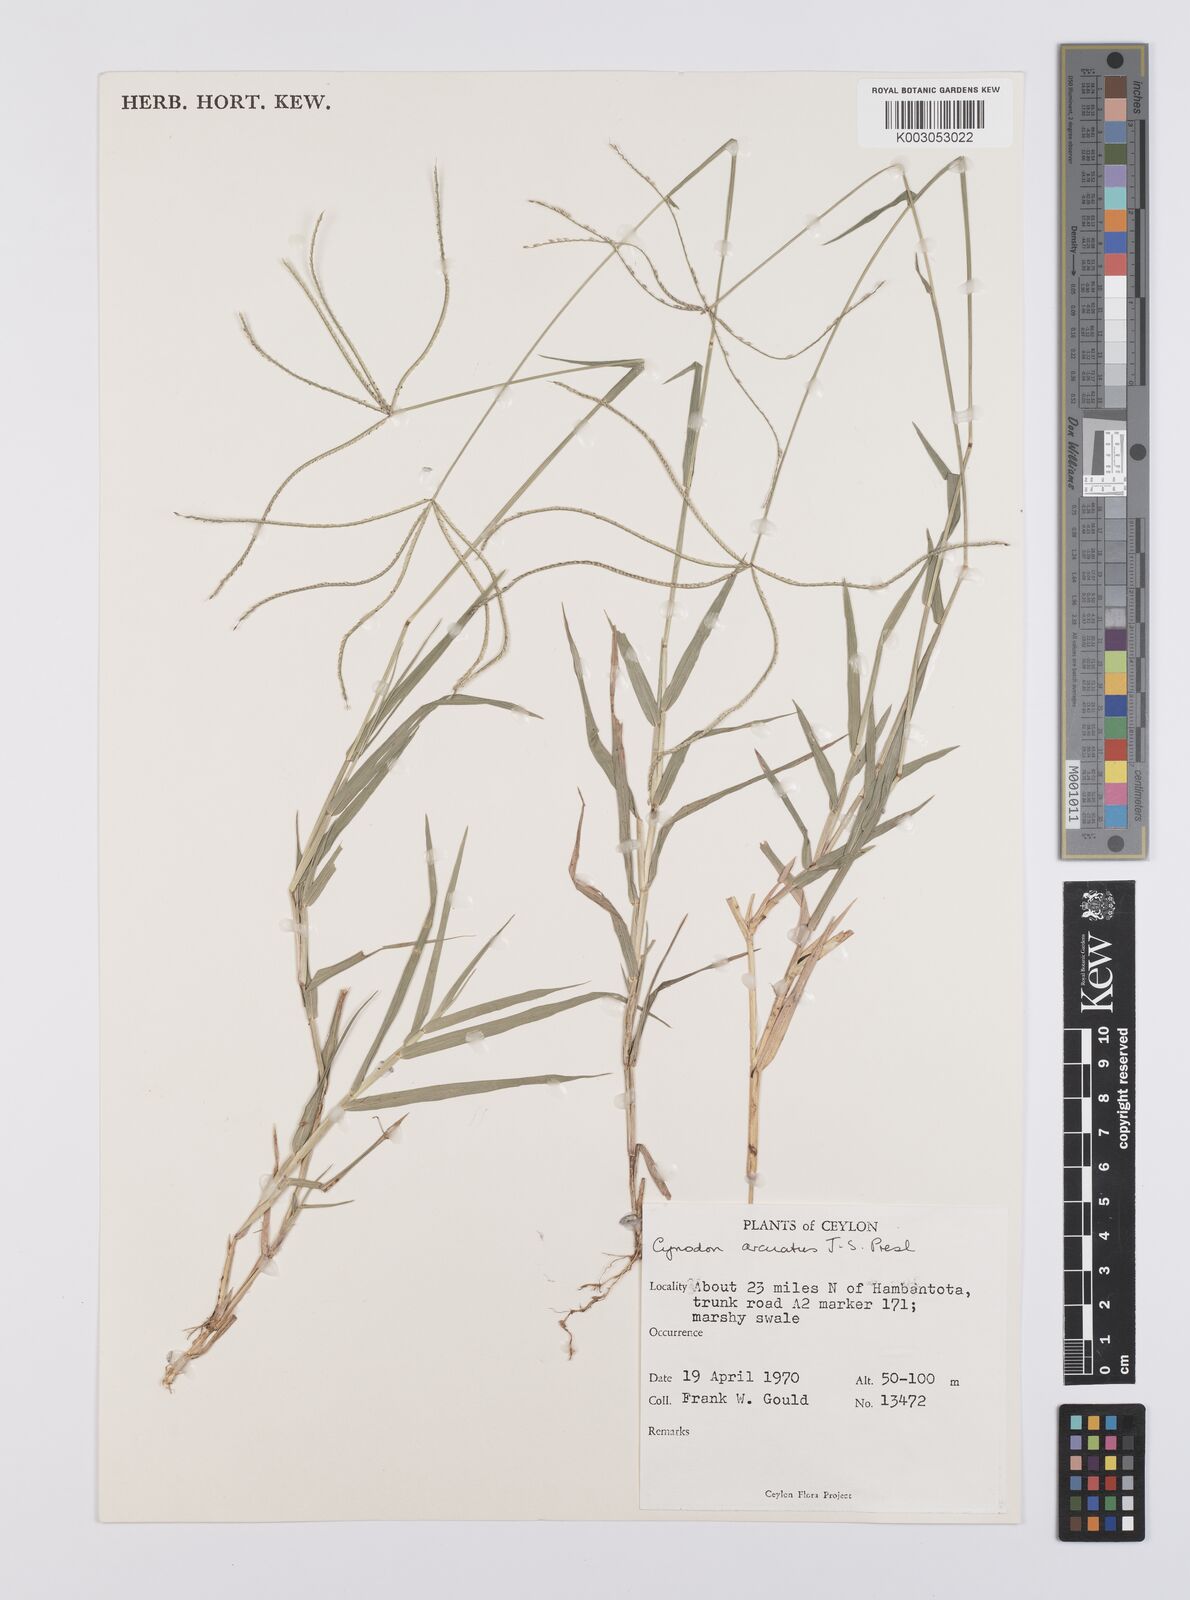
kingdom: Plantae
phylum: Tracheophyta
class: Liliopsida
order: Poales
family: Poaceae
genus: Cynodon
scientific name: Cynodon radiatus
